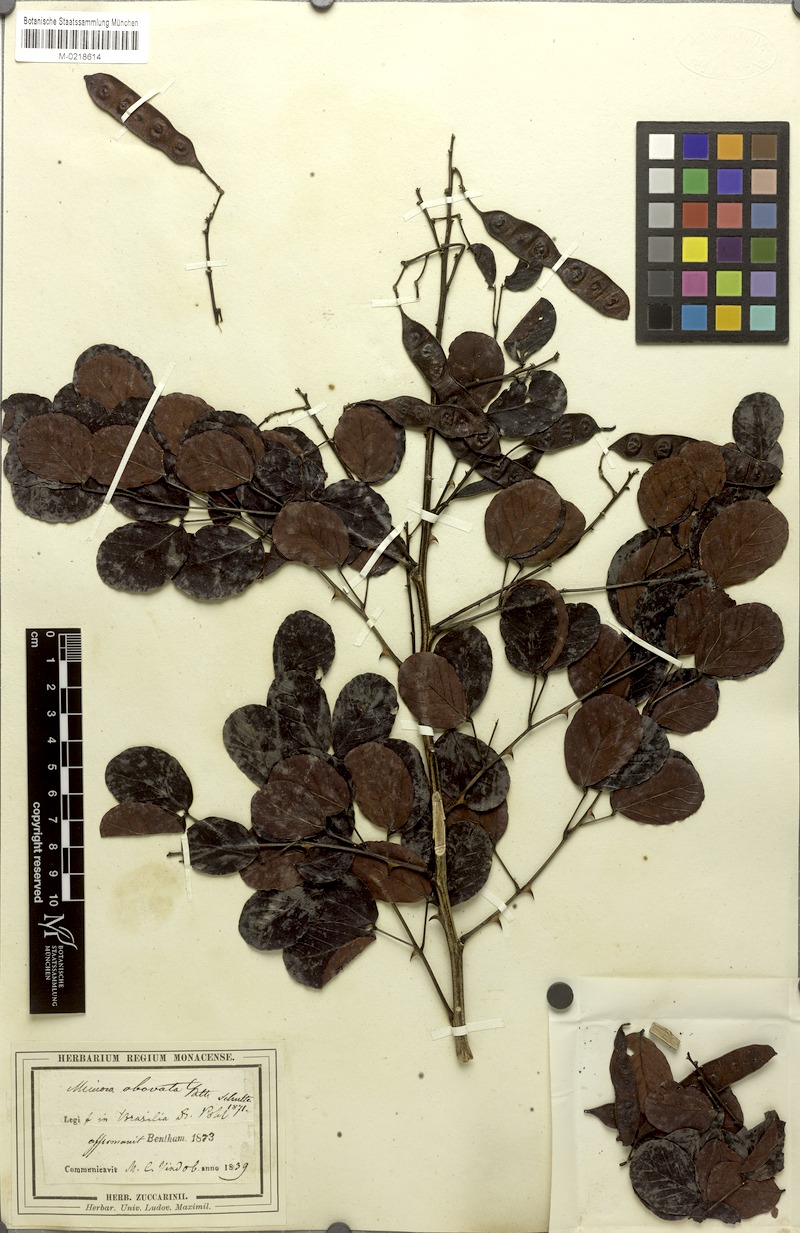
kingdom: Plantae
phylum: Tracheophyta
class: Magnoliopsida
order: Fabales
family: Fabaceae
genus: Mimosa
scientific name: Mimosa laticifera
